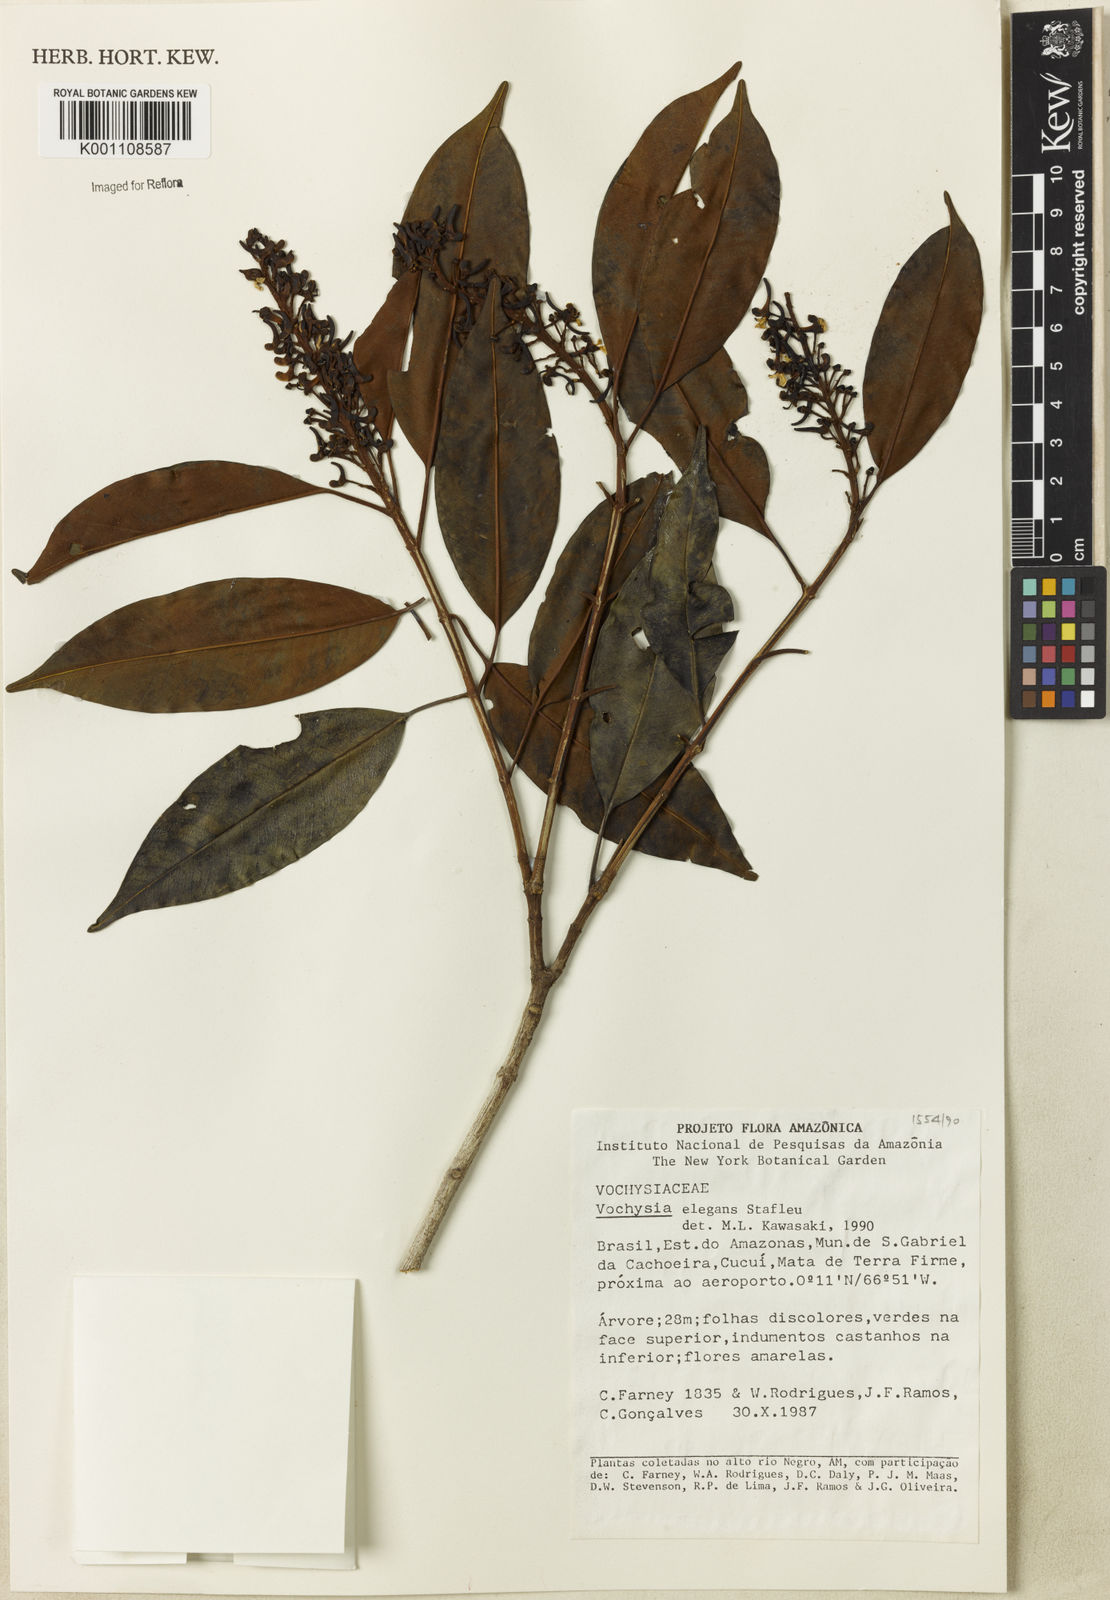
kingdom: Plantae
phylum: Tracheophyta
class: Magnoliopsida
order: Myrtales
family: Vochysiaceae
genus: Vochysia
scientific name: Vochysia elegans
